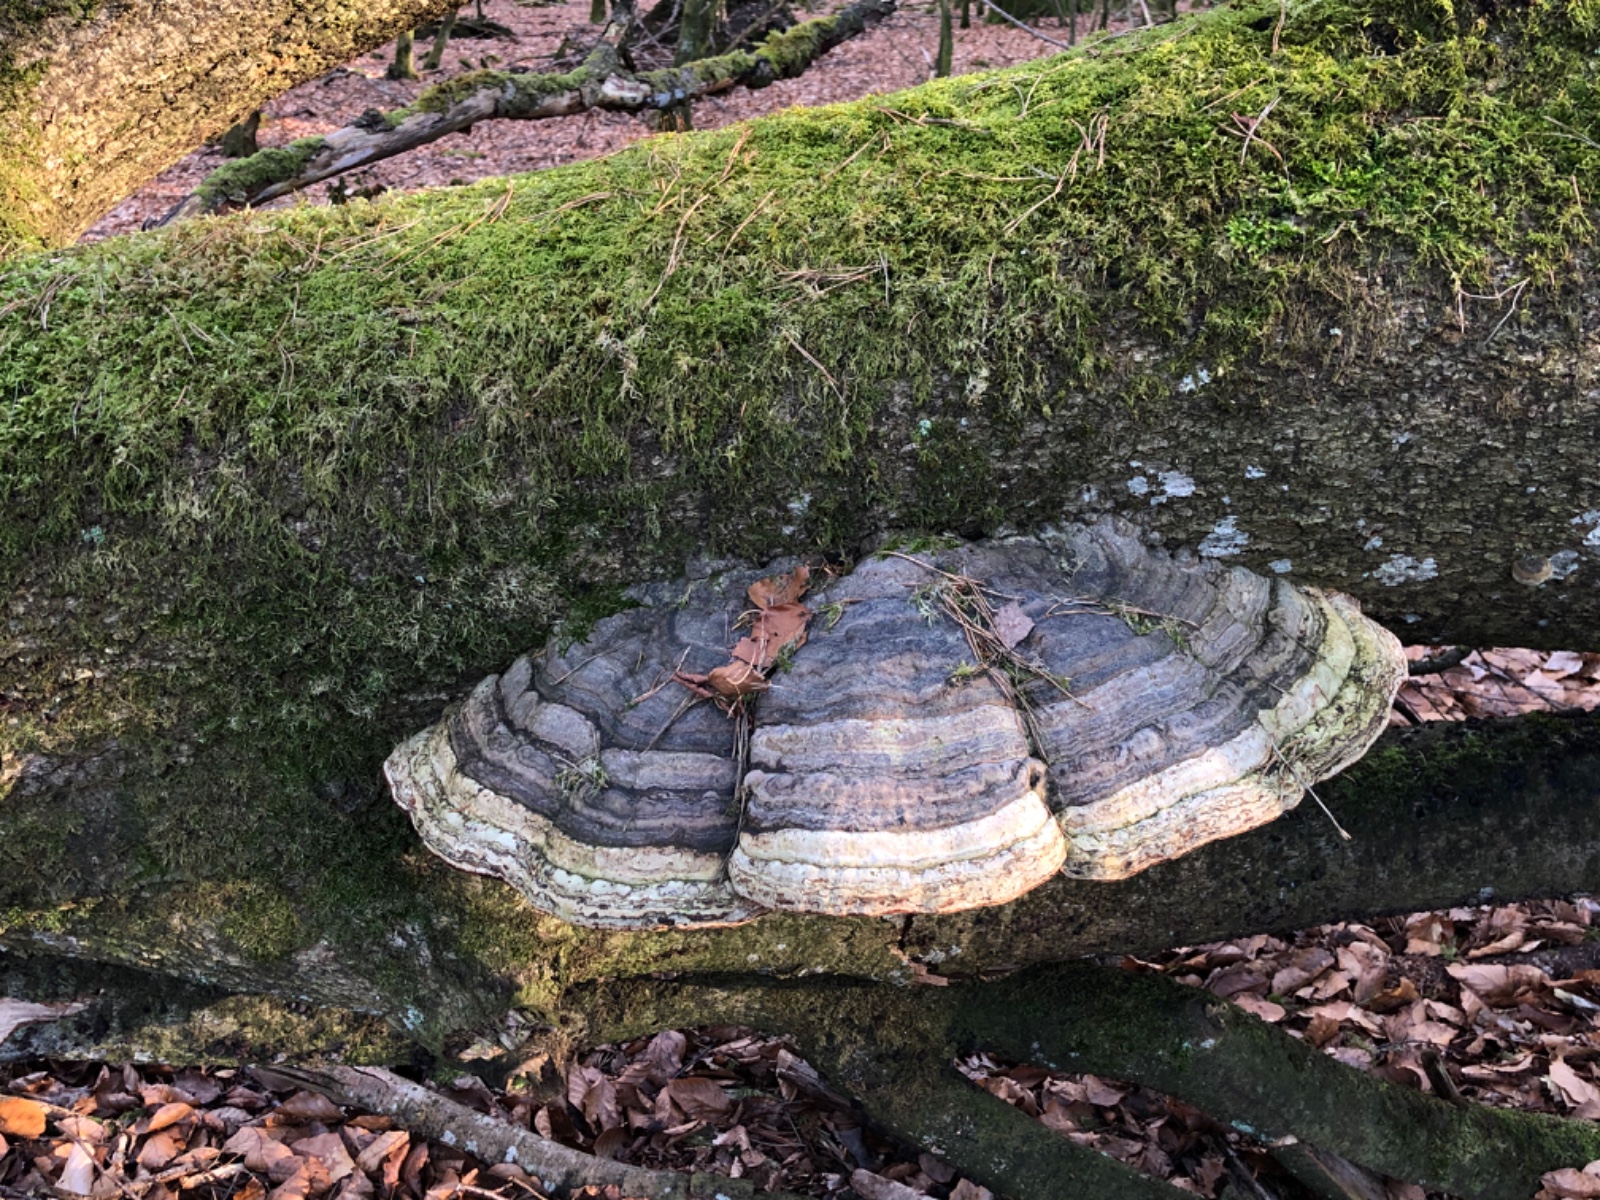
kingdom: Fungi
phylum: Basidiomycota
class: Agaricomycetes
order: Polyporales
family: Polyporaceae
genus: Fomes
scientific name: Fomes fomentarius
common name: tøndersvamp
